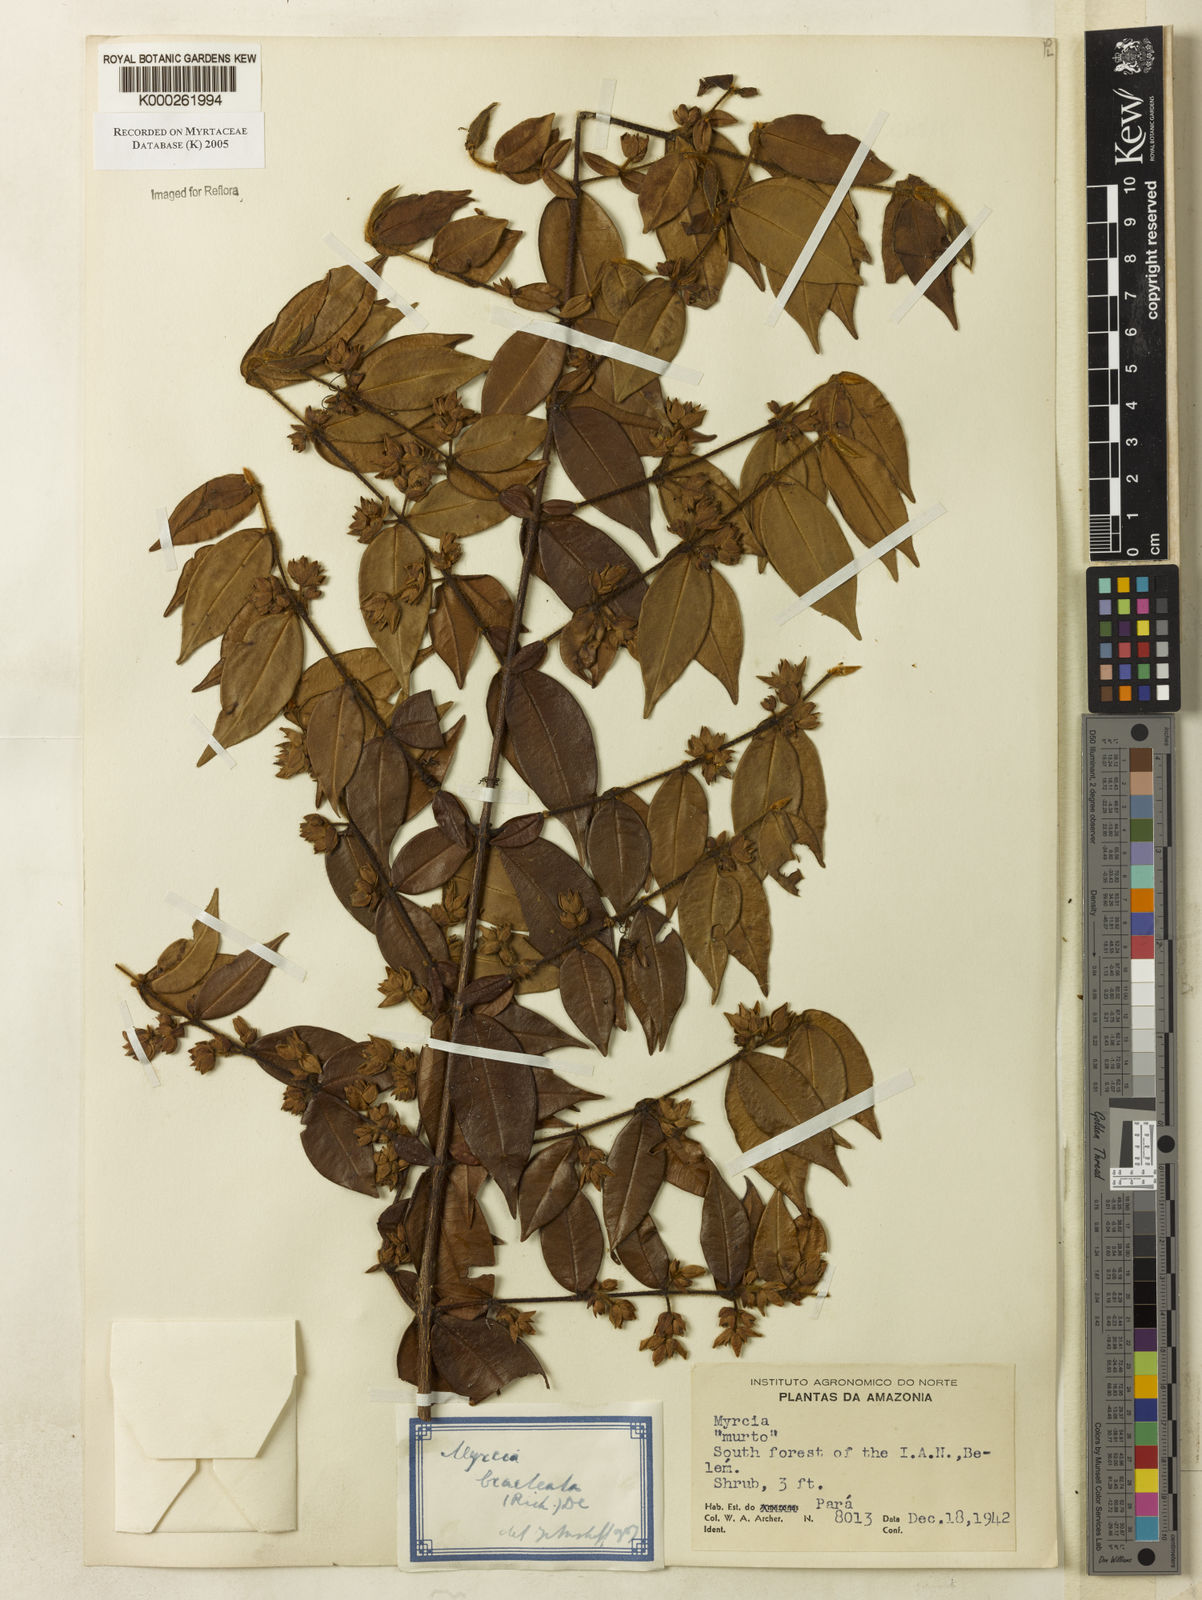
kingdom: Plantae
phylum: Tracheophyta
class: Magnoliopsida
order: Myrtales
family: Myrtaceae
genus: Myrcia
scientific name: Myrcia bracteata
